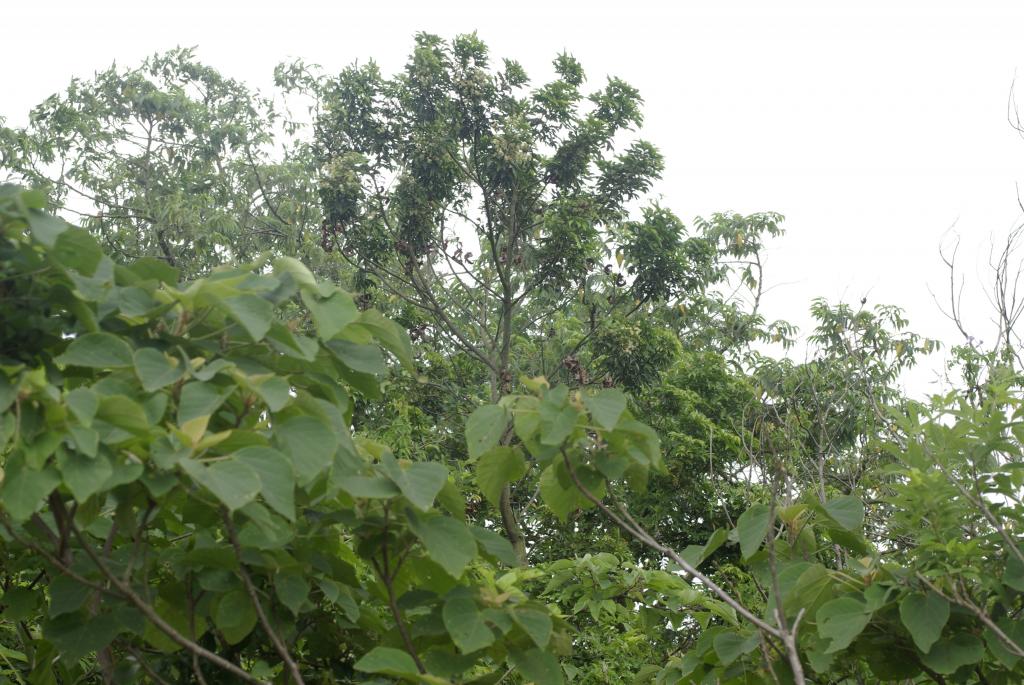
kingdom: Plantae
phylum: Tracheophyta
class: Magnoliopsida
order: Fabales
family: Fabaceae
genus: Archidendron
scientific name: Archidendron lucidum
